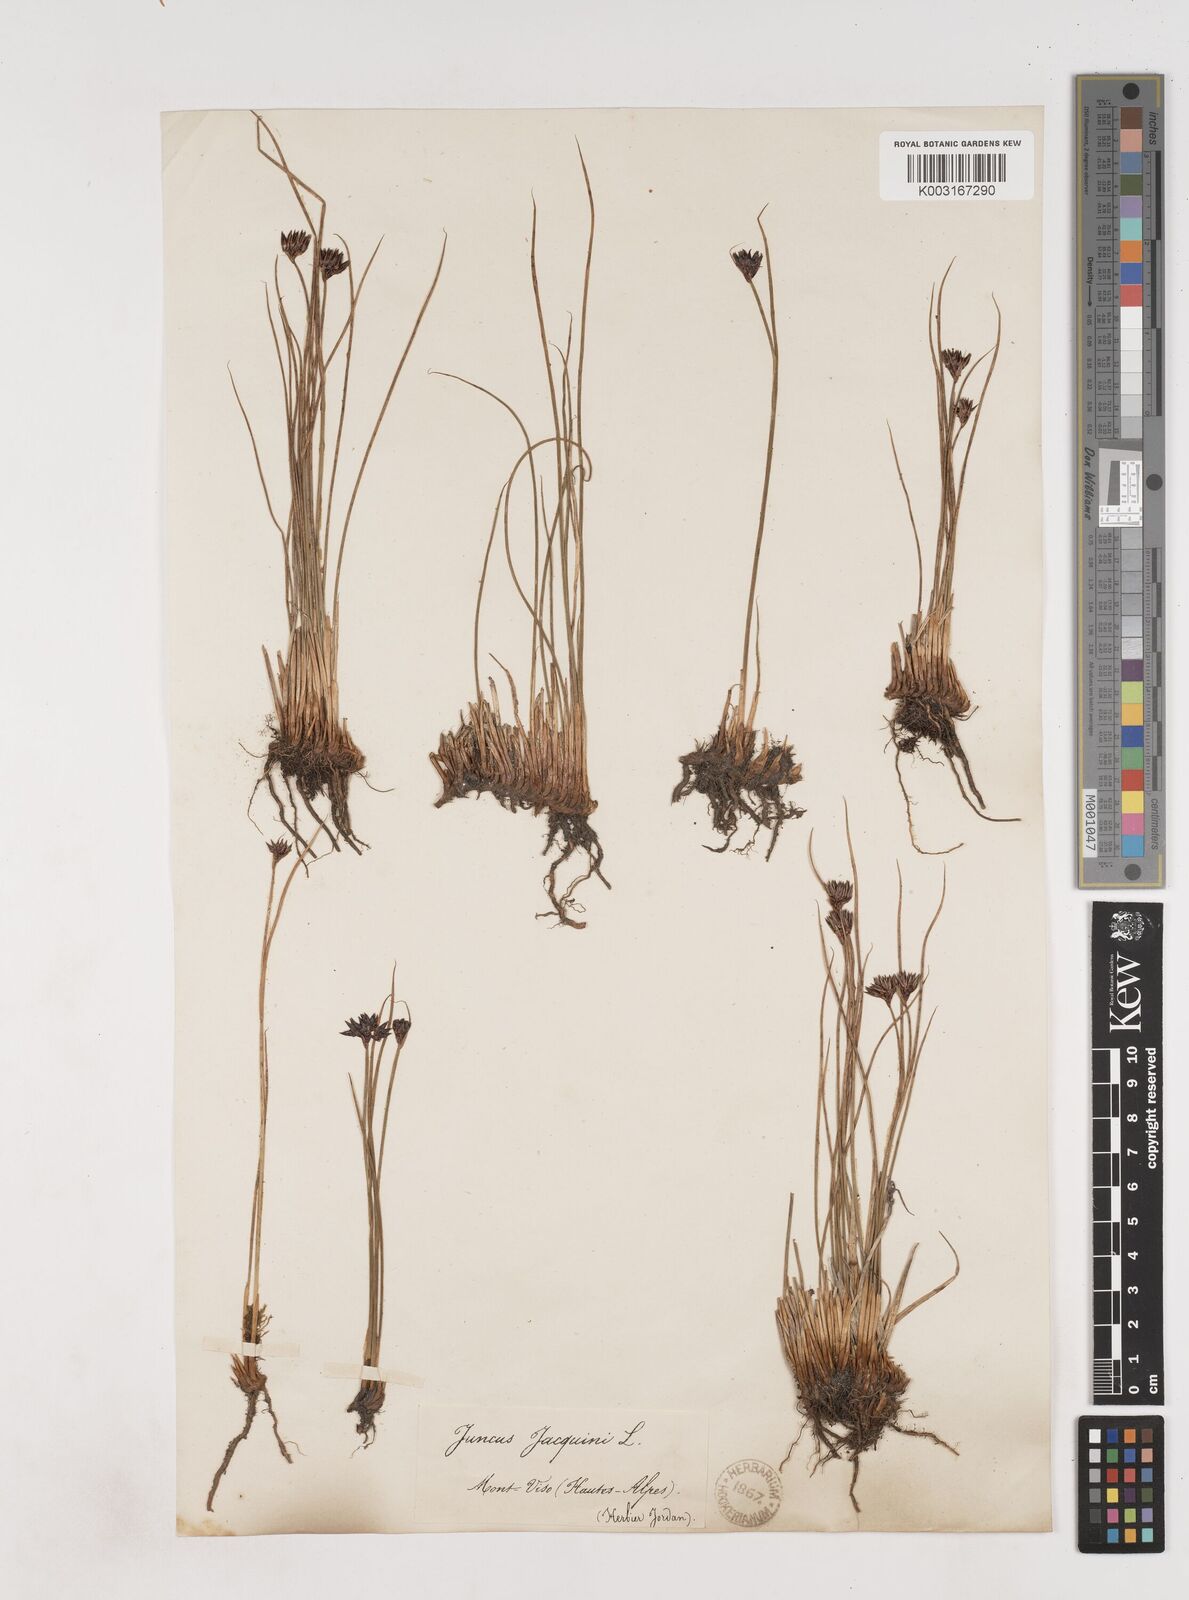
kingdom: Plantae
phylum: Tracheophyta
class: Liliopsida
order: Poales
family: Juncaceae
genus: Juncus
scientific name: Juncus jacquinii
